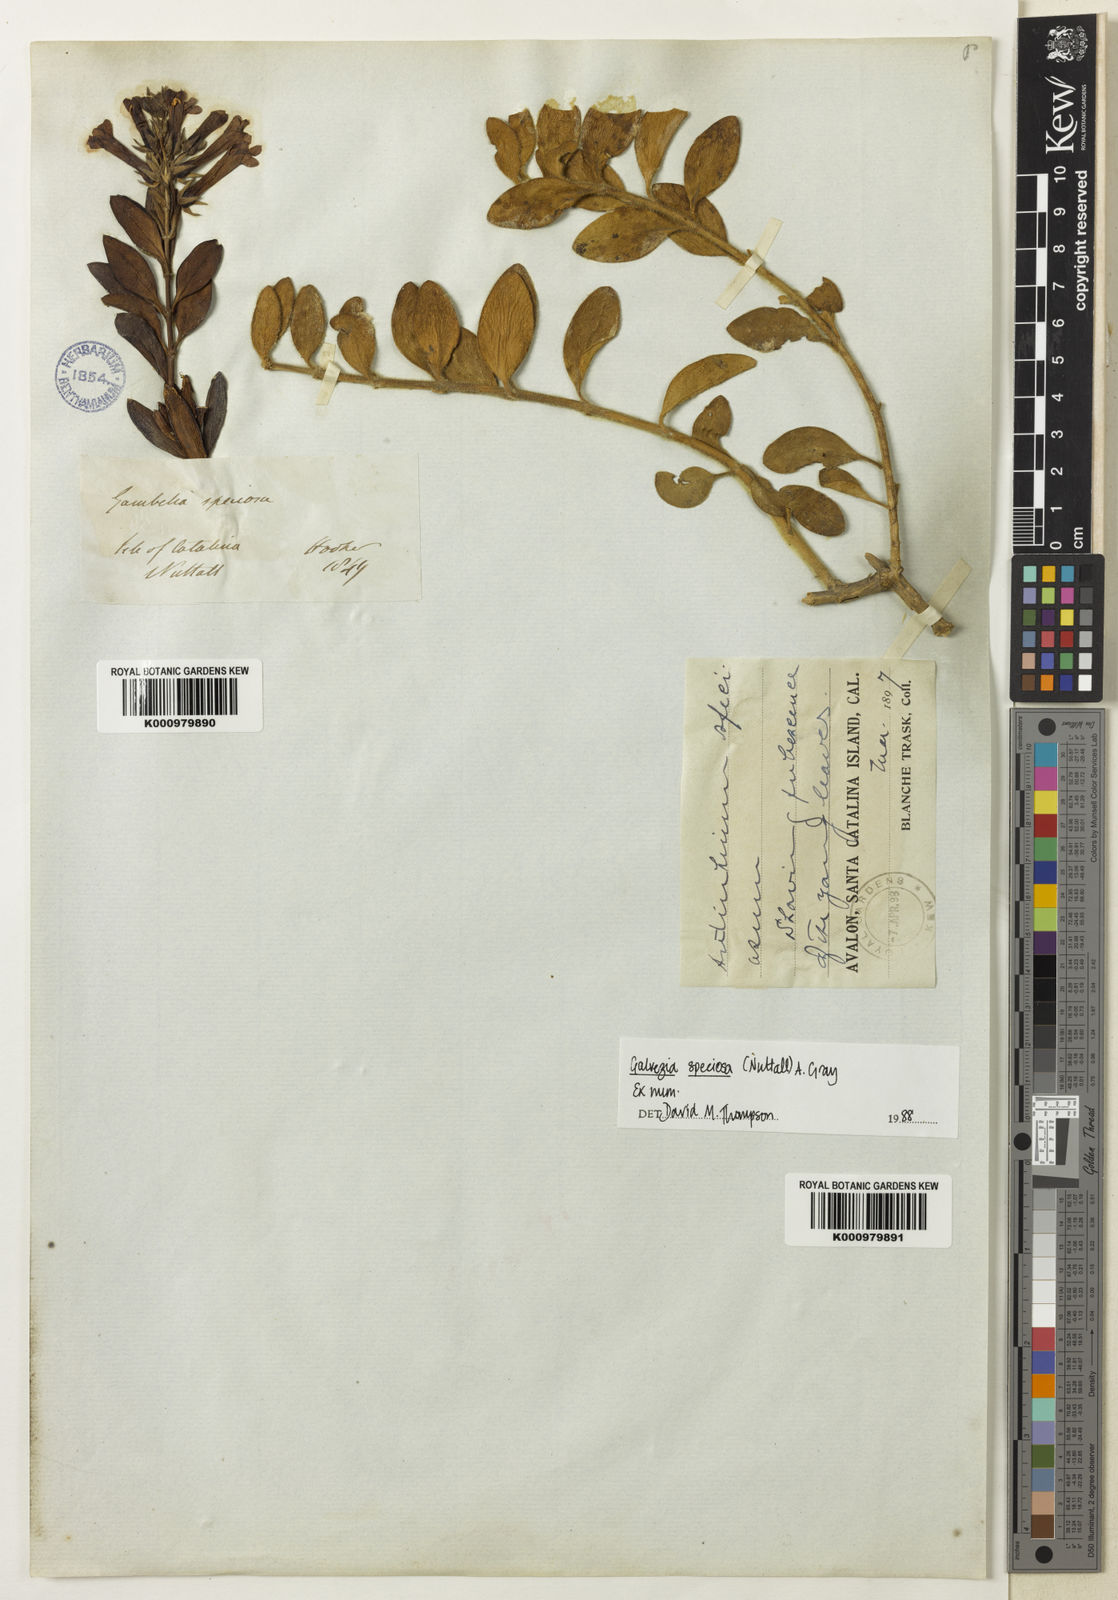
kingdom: Plantae
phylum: Tracheophyta
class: Magnoliopsida
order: Lamiales
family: Plantaginaceae
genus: Gambelia
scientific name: Gambelia speciosa
